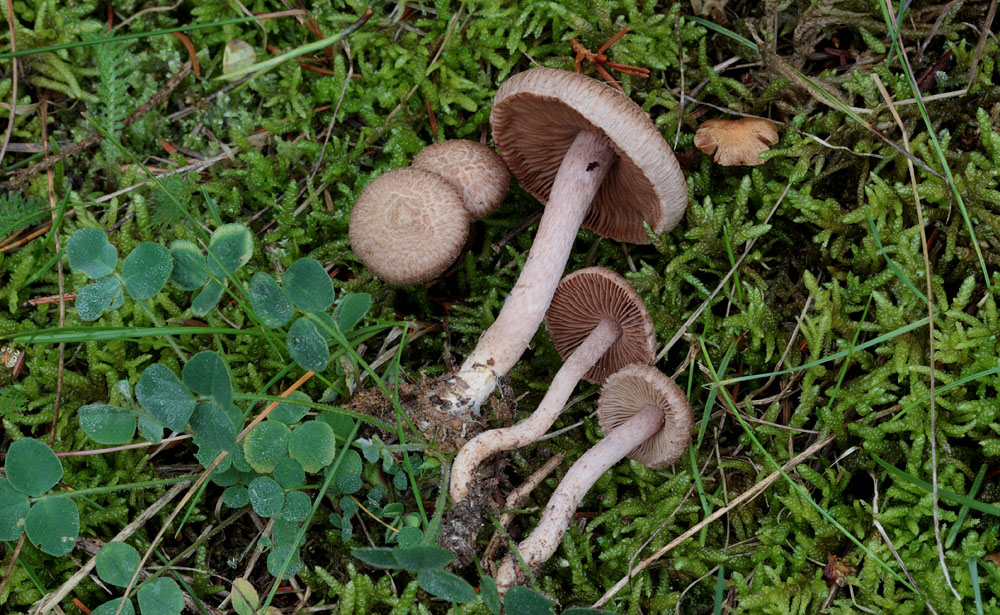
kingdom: Fungi
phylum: Basidiomycota
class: Agaricomycetes
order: Agaricales
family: Inocybaceae
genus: Inocybe
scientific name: Inocybe cincinnata
